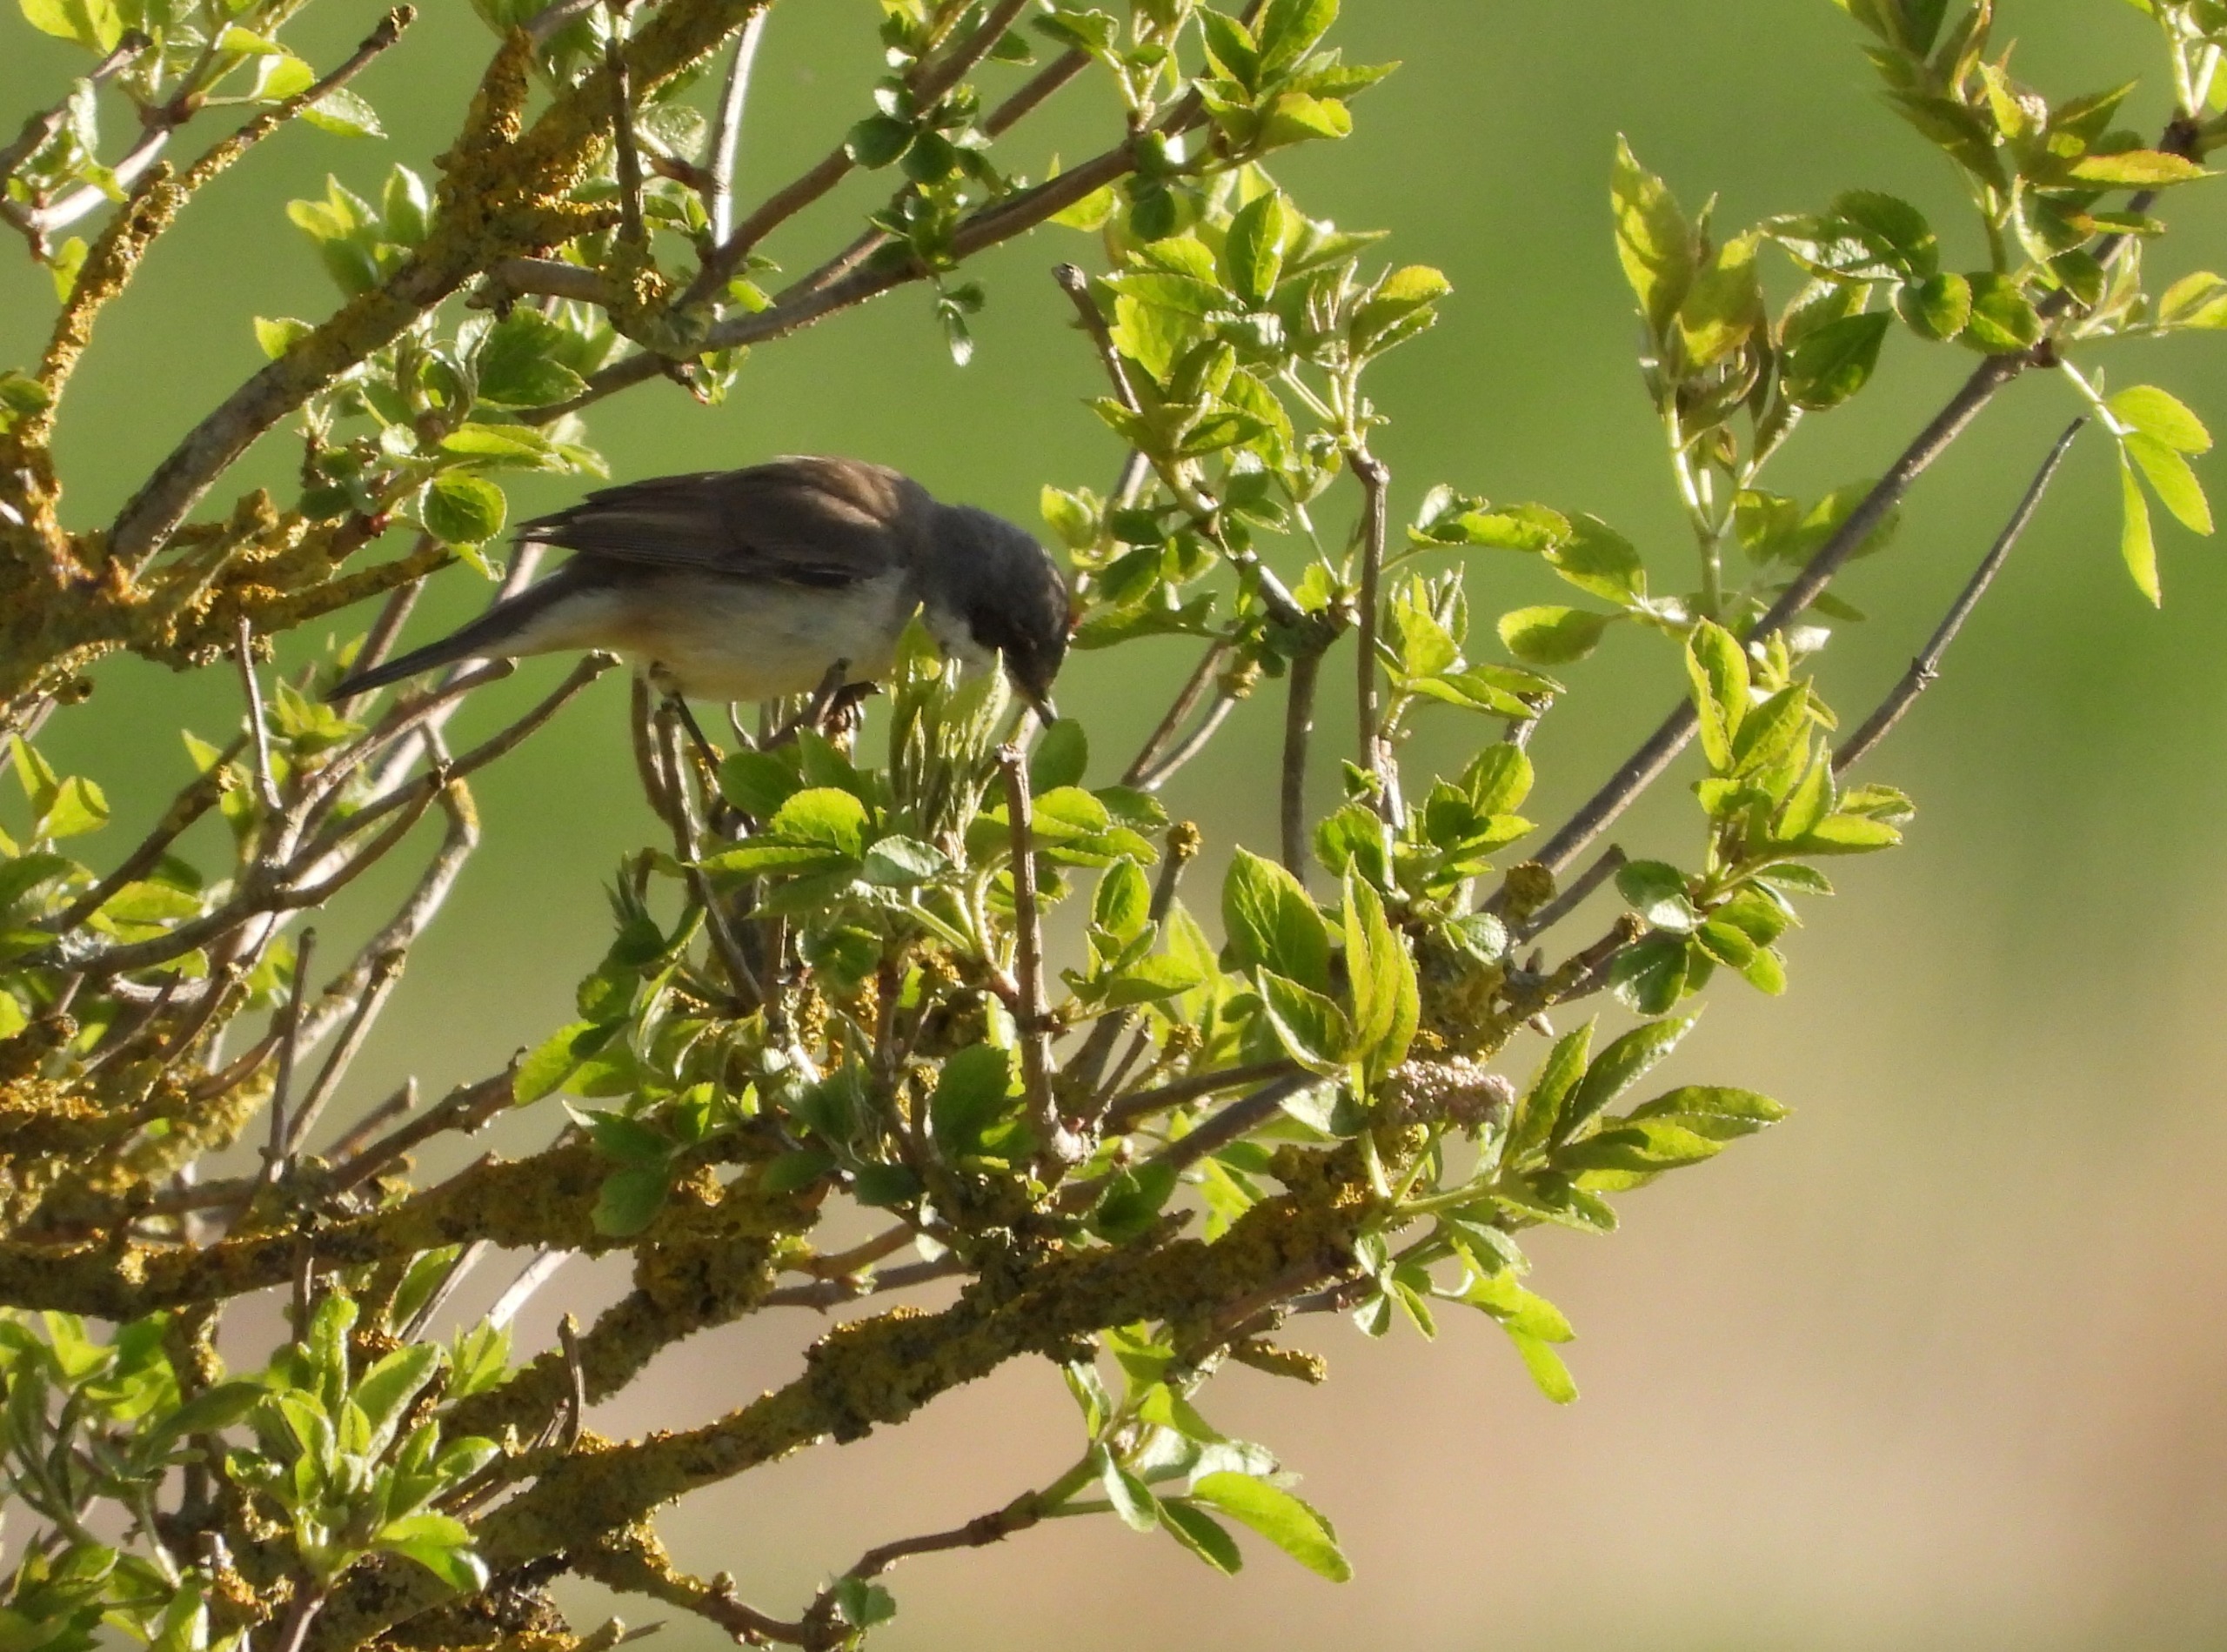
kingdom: Animalia
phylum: Chordata
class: Aves
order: Passeriformes
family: Sylviidae
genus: Sylvia
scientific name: Sylvia curruca
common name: Gærdesanger
